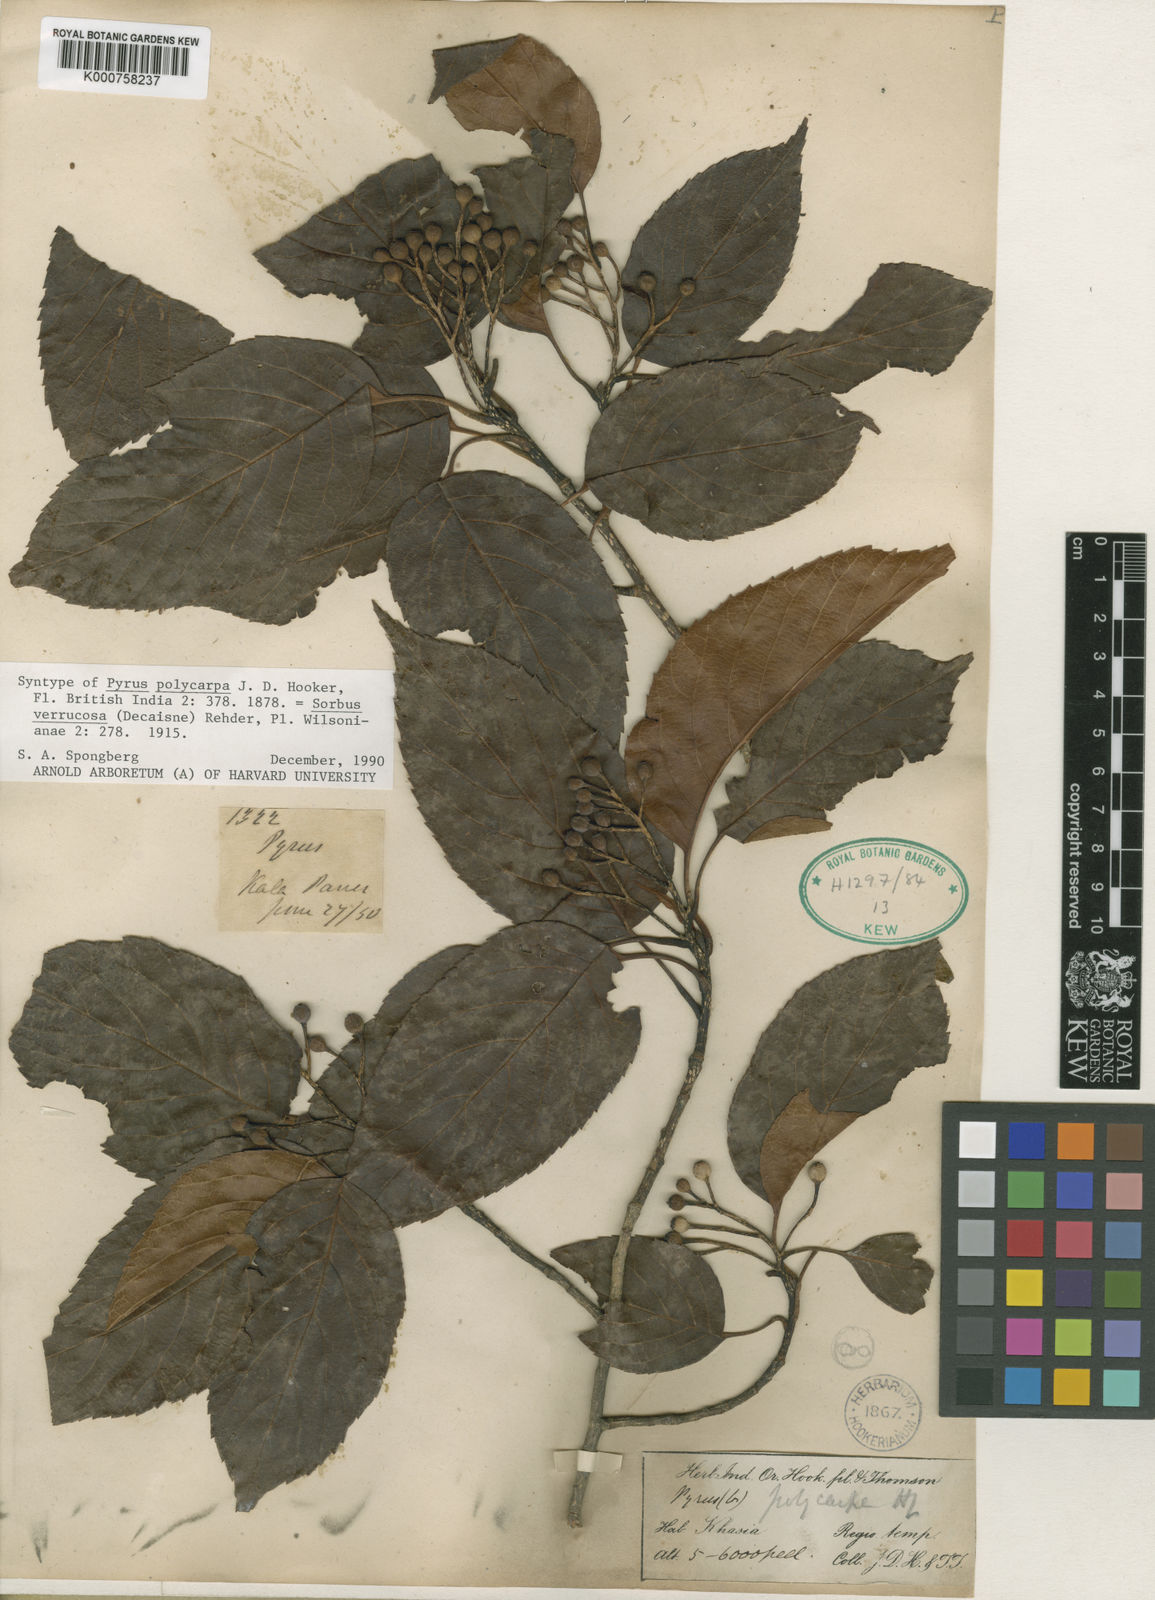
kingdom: Plantae
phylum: Tracheophyta
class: Magnoliopsida
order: Rosales
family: Rosaceae
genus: Micromeles
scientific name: Micromeles cuspidata
